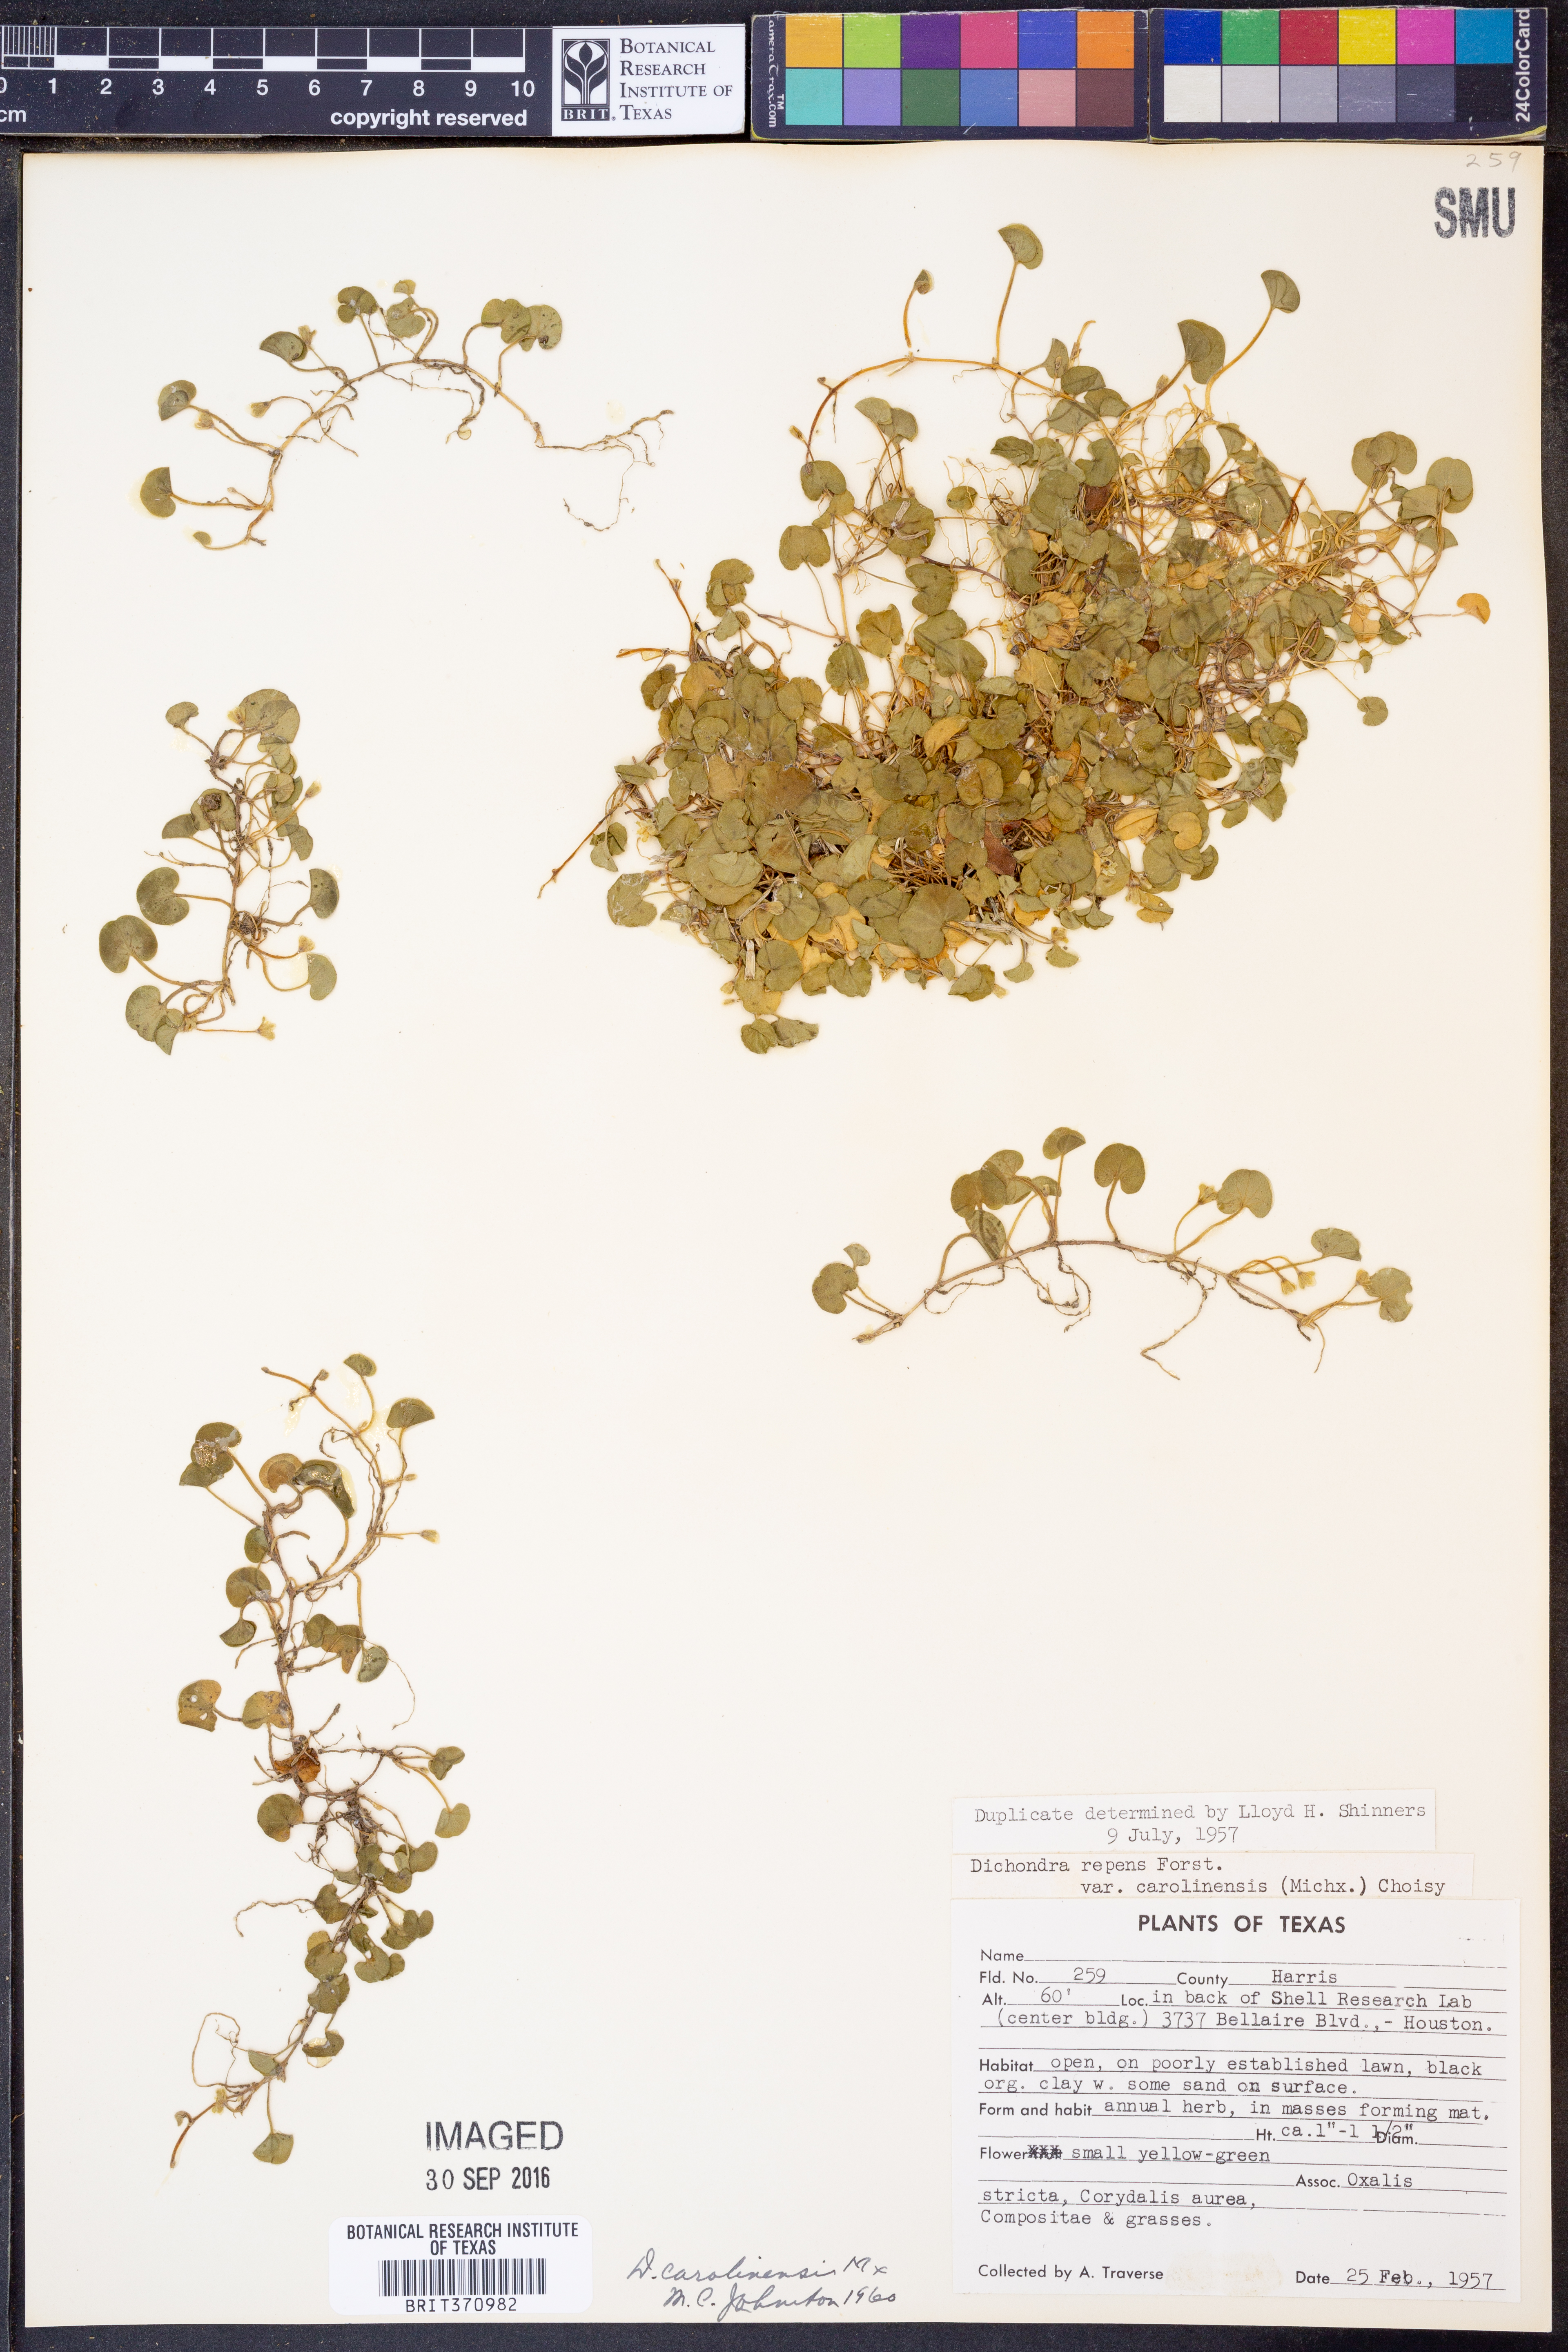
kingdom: Plantae
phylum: Tracheophyta
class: Magnoliopsida
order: Solanales
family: Convolvulaceae
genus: Dichondra
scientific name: Dichondra carolinensis
